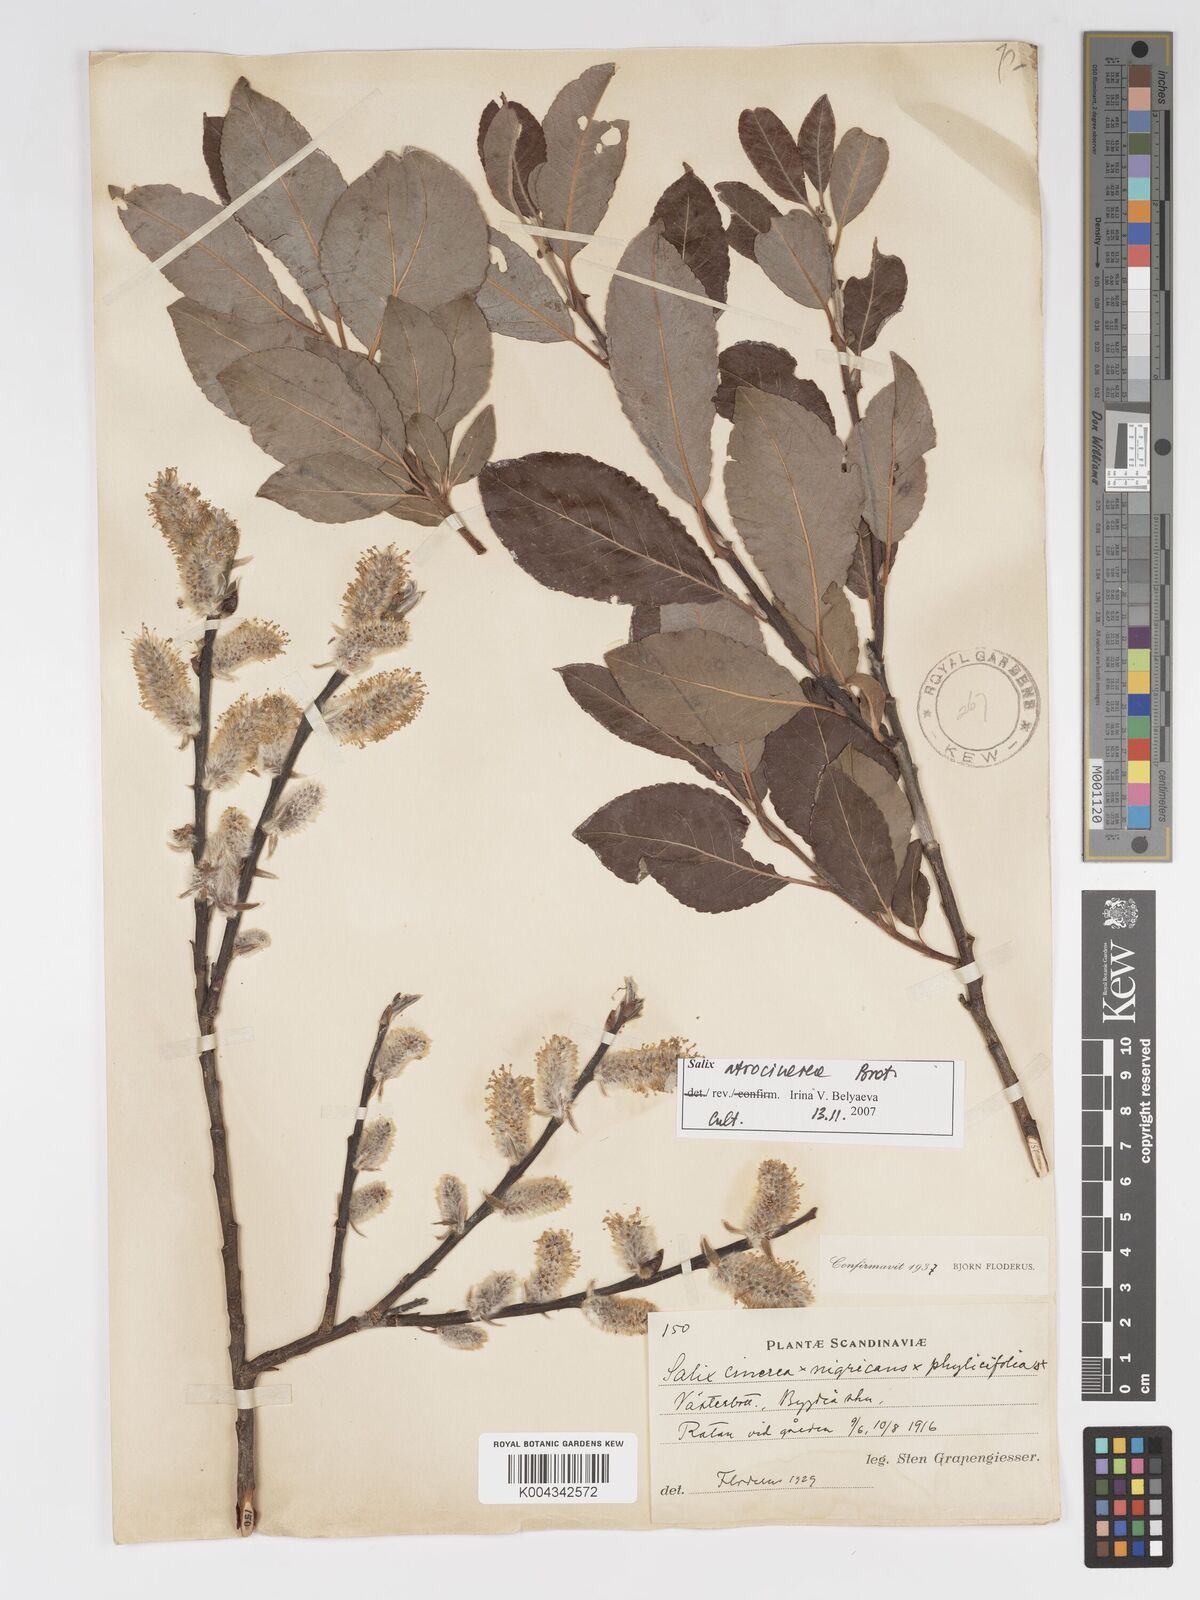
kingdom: Plantae
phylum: Tracheophyta
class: Magnoliopsida
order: Malpighiales
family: Salicaceae
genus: Salix
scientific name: Salix cinerea
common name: Common sallow
